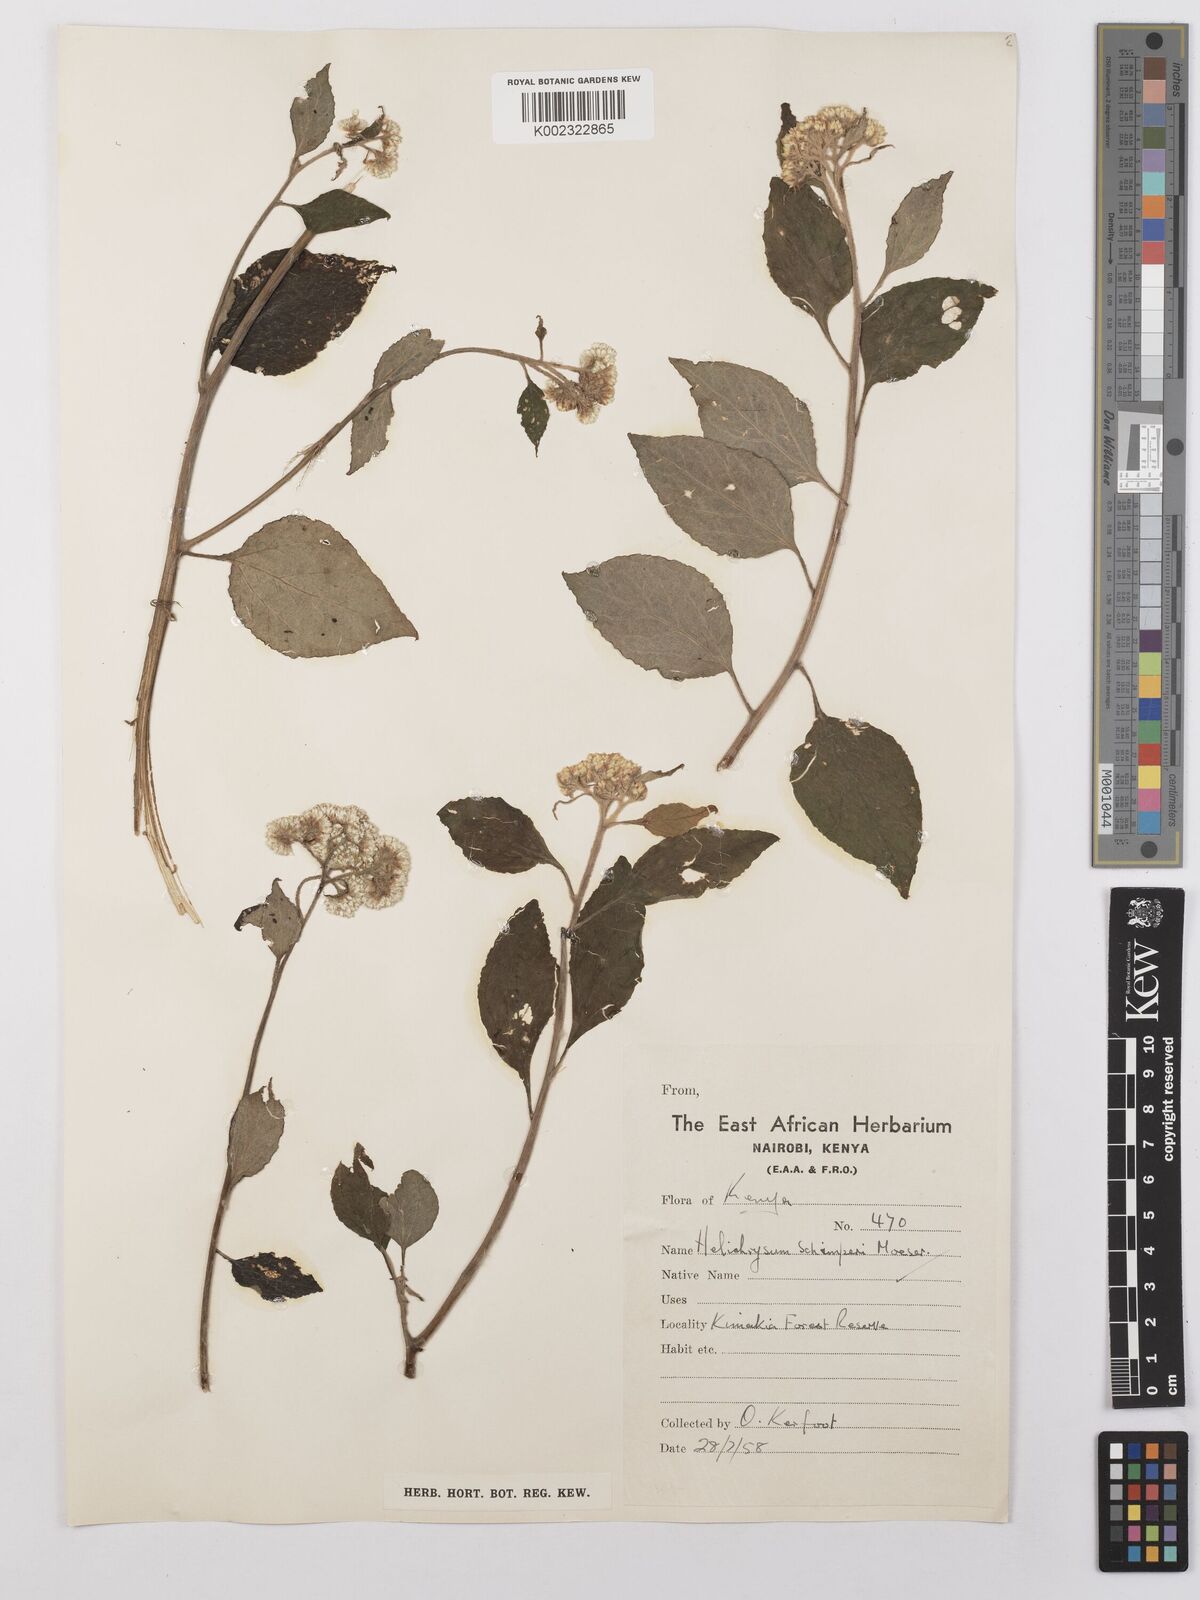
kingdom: Plantae
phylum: Tracheophyta
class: Magnoliopsida
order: Asterales
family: Asteraceae
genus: Helichrysum
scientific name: Helichrysum schimperi
